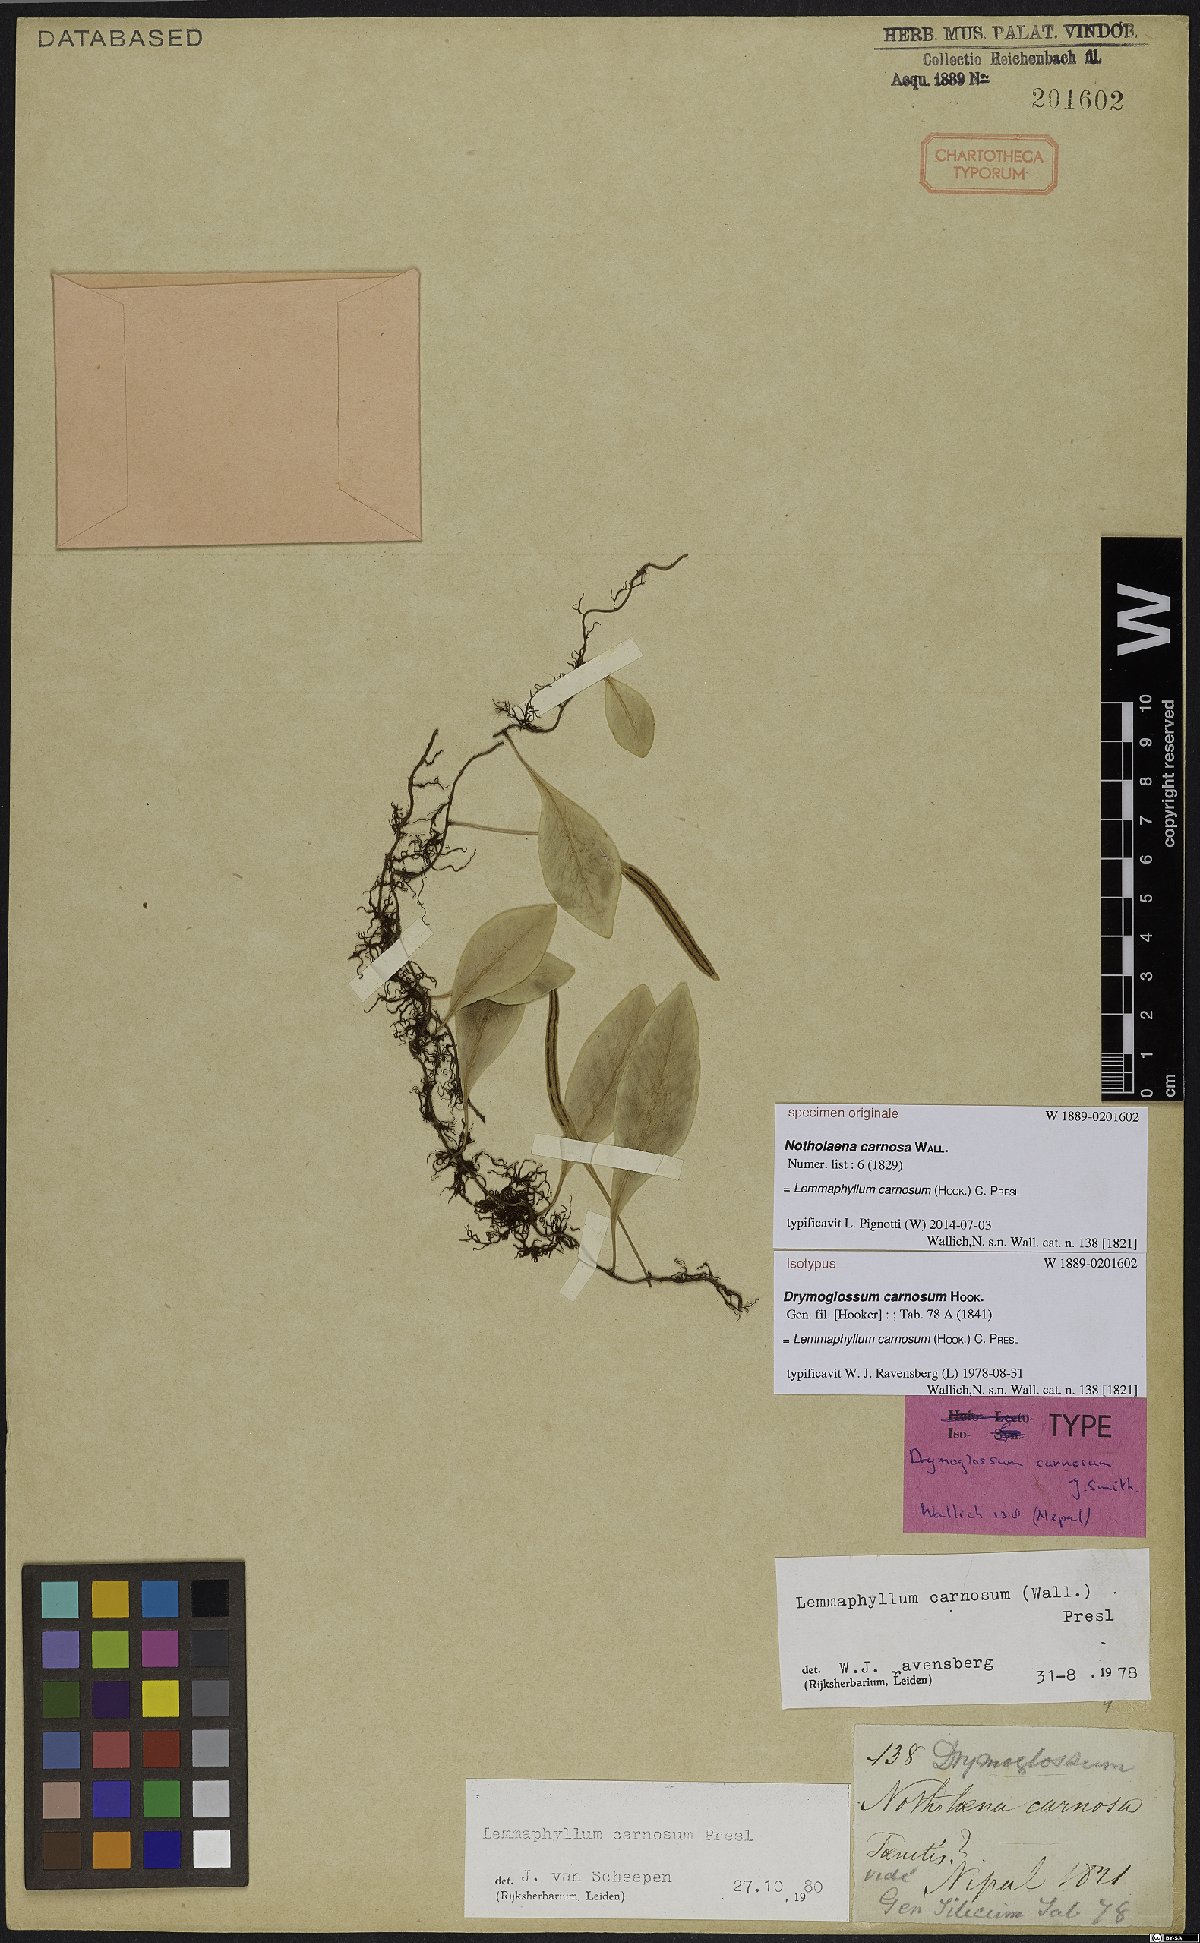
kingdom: Plantae
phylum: Tracheophyta
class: Polypodiopsida
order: Polypodiales
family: Polypodiaceae
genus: Lepisorus
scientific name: Lepisorus carnosus
